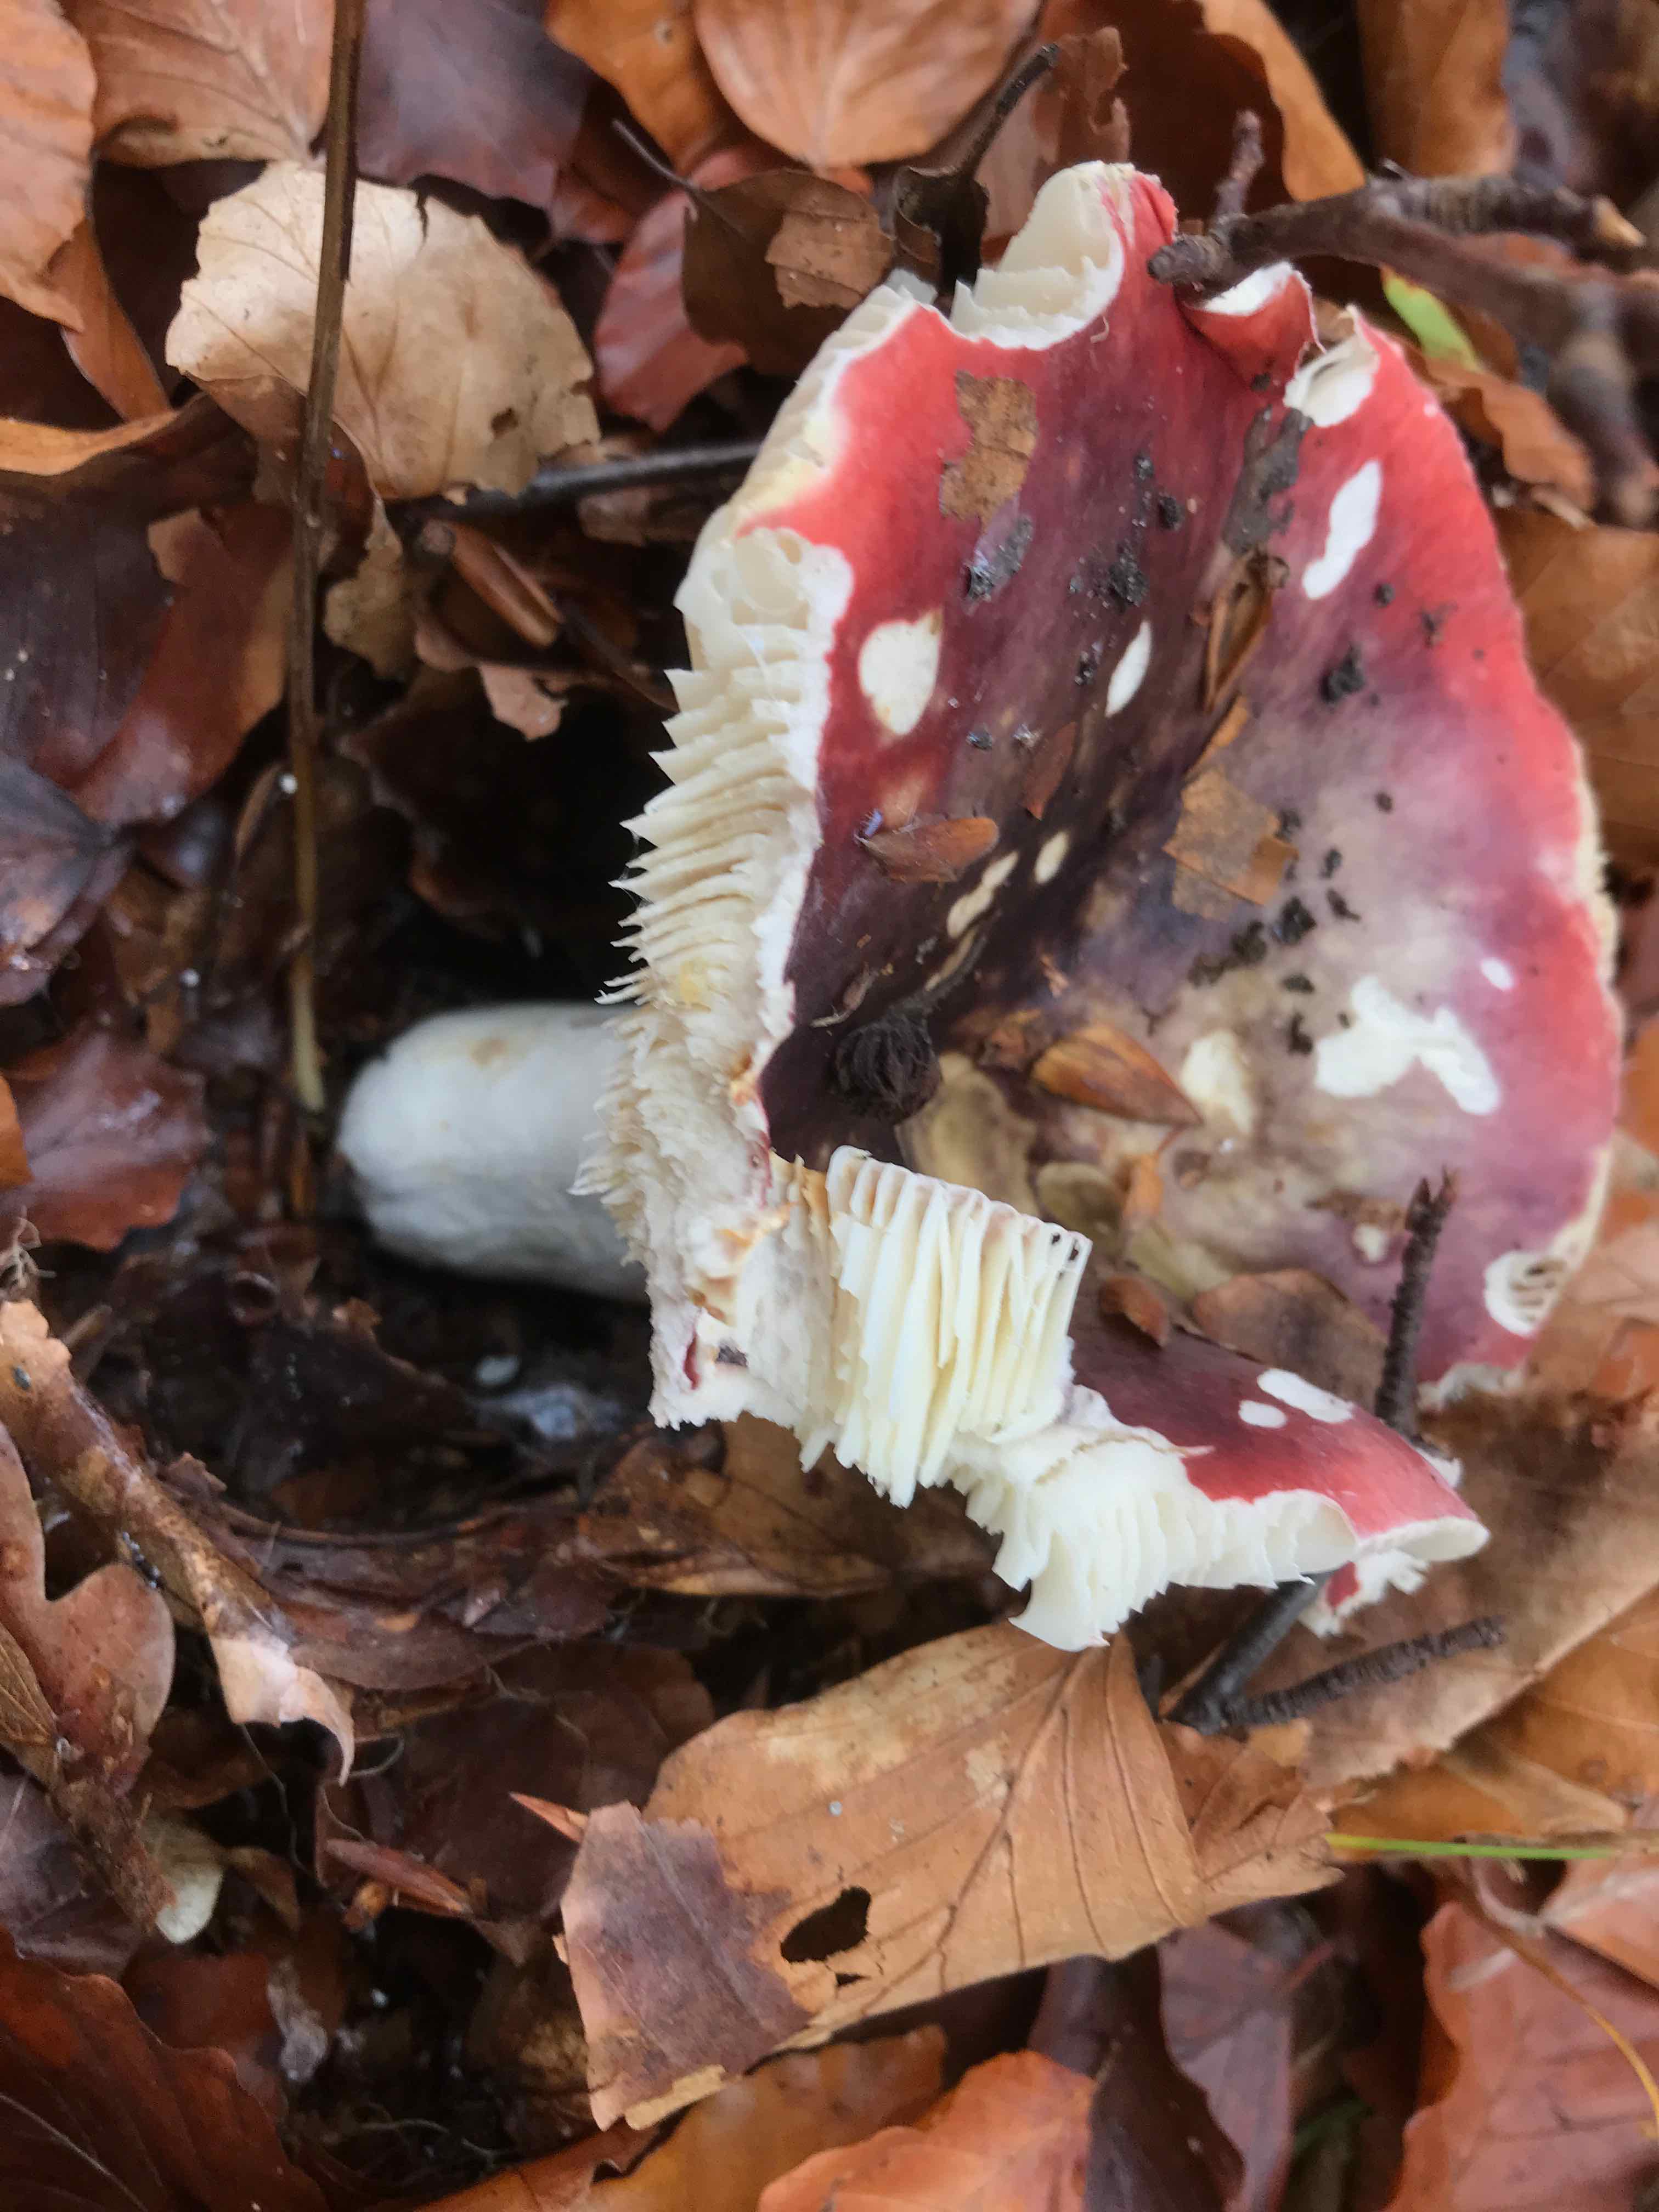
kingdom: Fungi
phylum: Basidiomycota
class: Agaricomycetes
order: Russulales
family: Russulaceae
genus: Russula
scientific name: Russula atropurpurea
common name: purpurbroget skørhat
